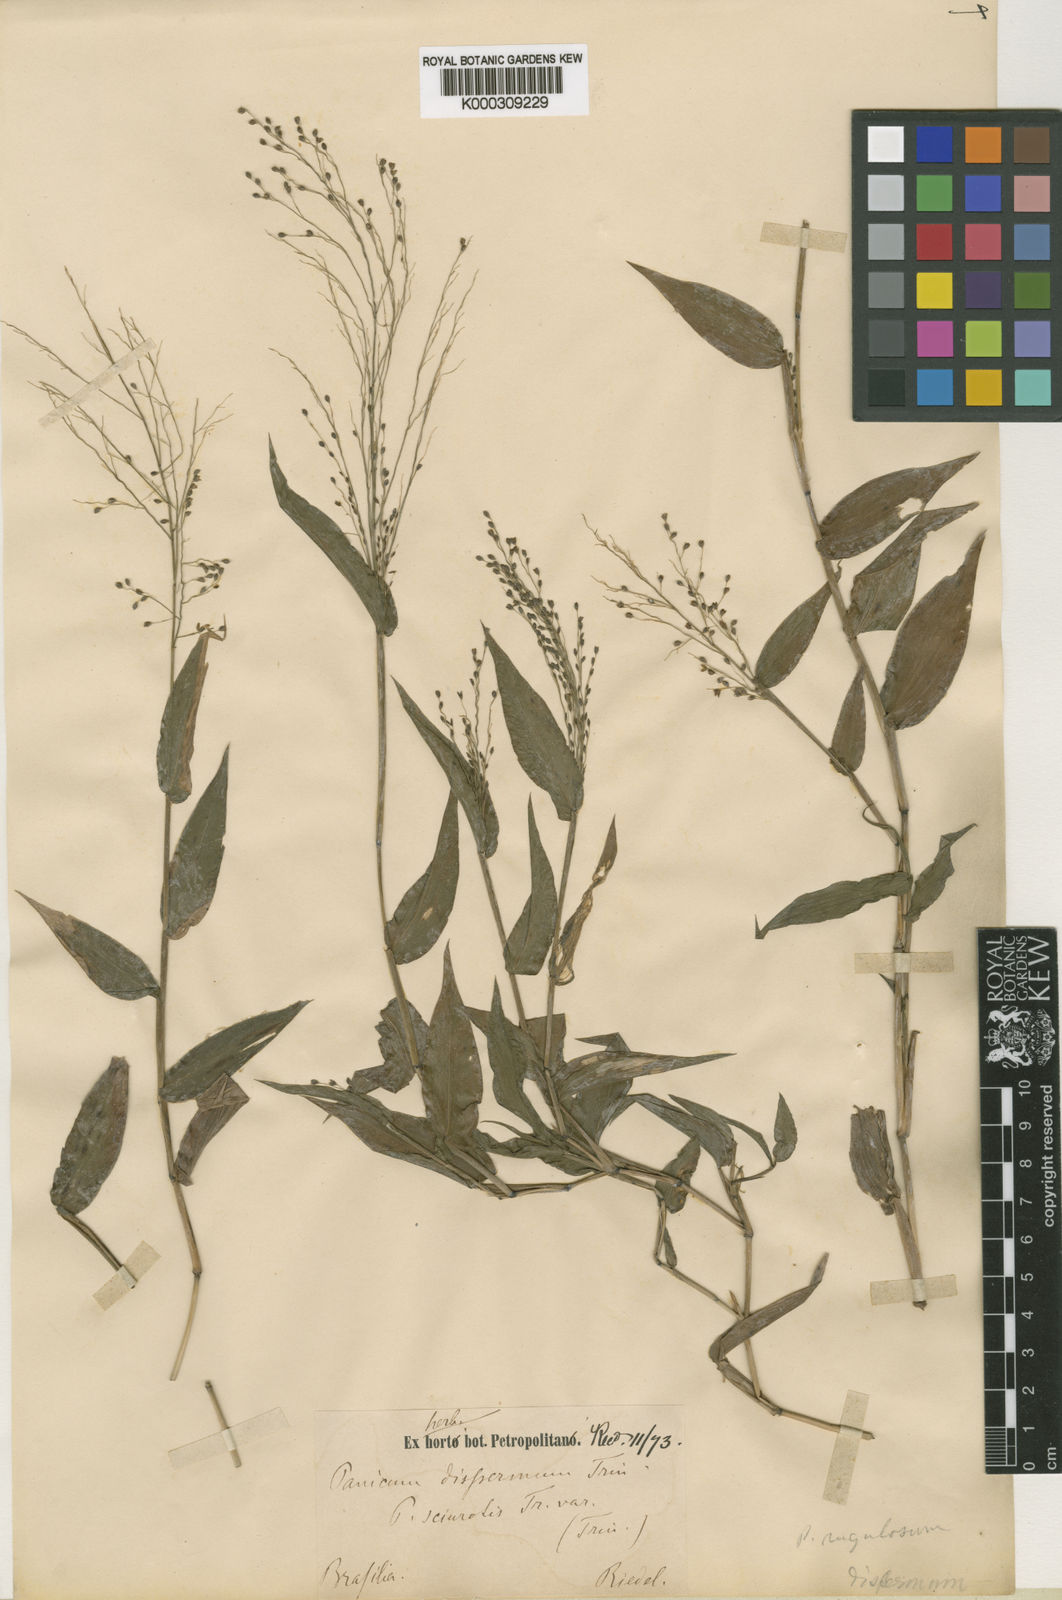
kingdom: Plantae
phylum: Tracheophyta
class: Liliopsida
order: Poales
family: Poaceae
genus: Panicum
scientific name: Panicum millegrana
